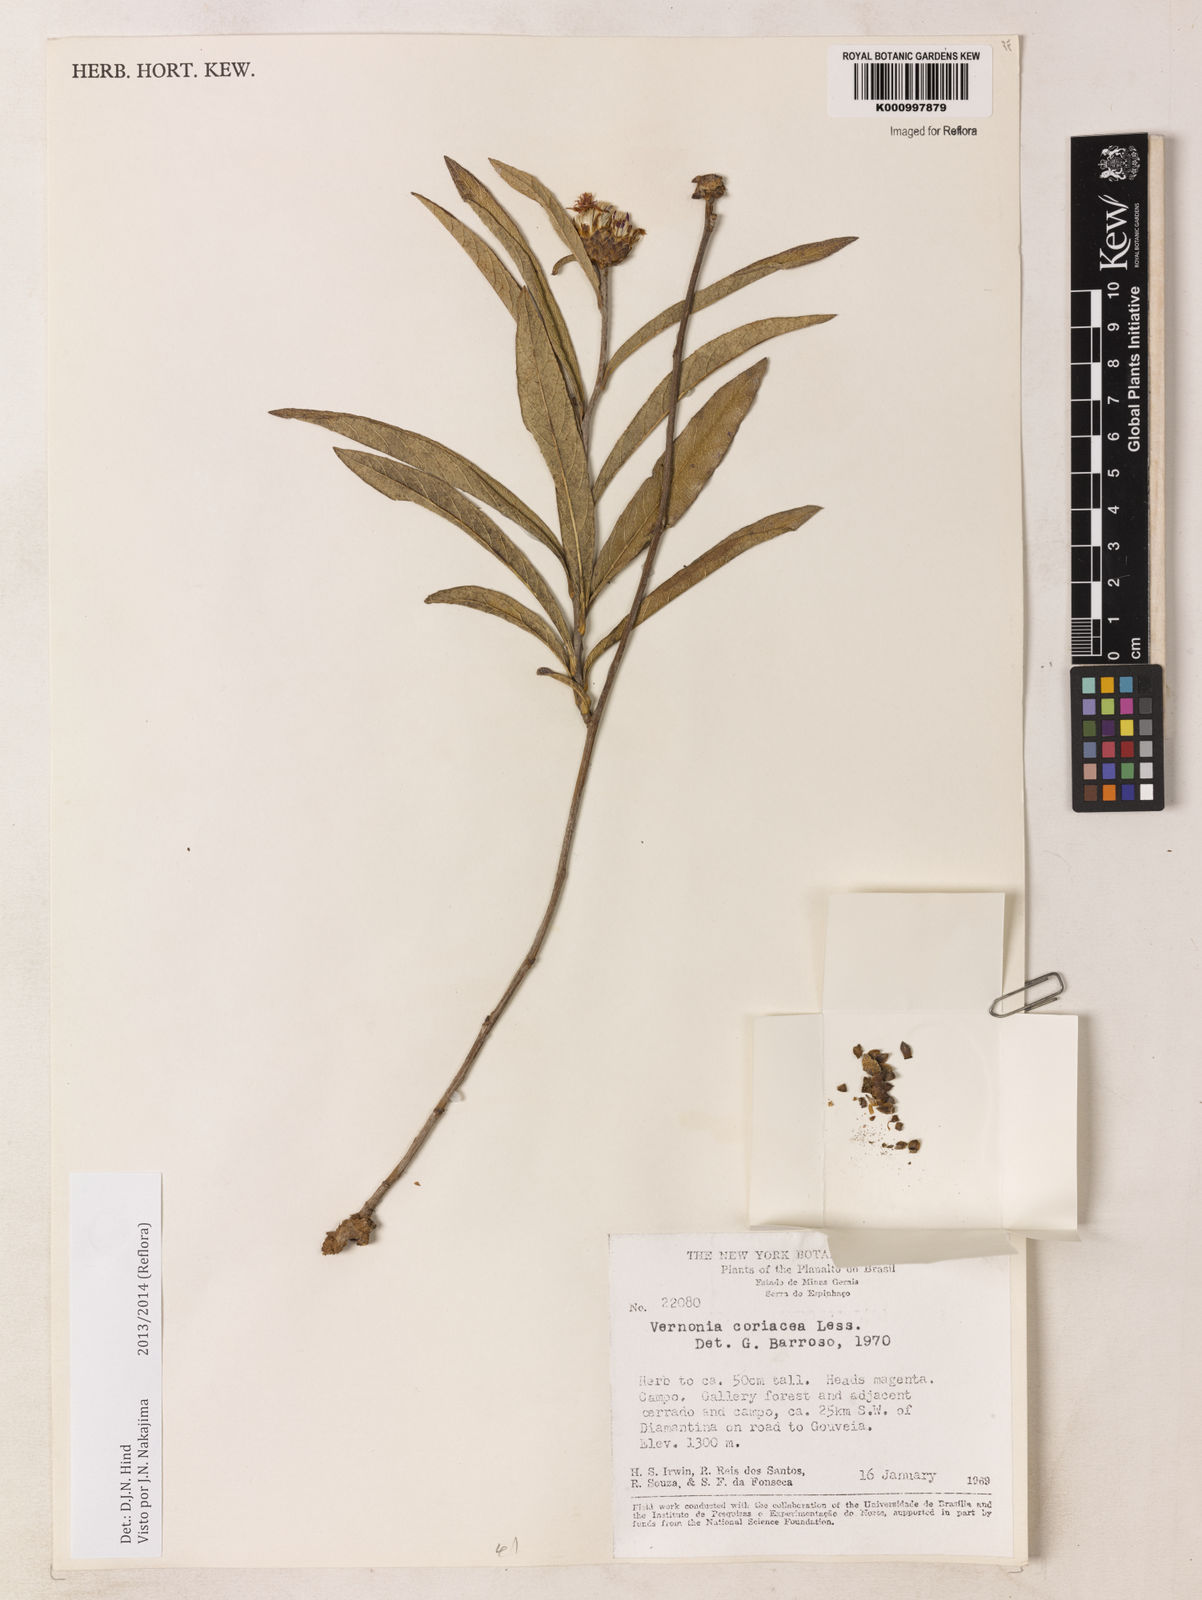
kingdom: Plantae
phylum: Tracheophyta
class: Magnoliopsida
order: Asterales
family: Asteraceae
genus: Lessingianthus
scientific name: Lessingianthus coriaceus
